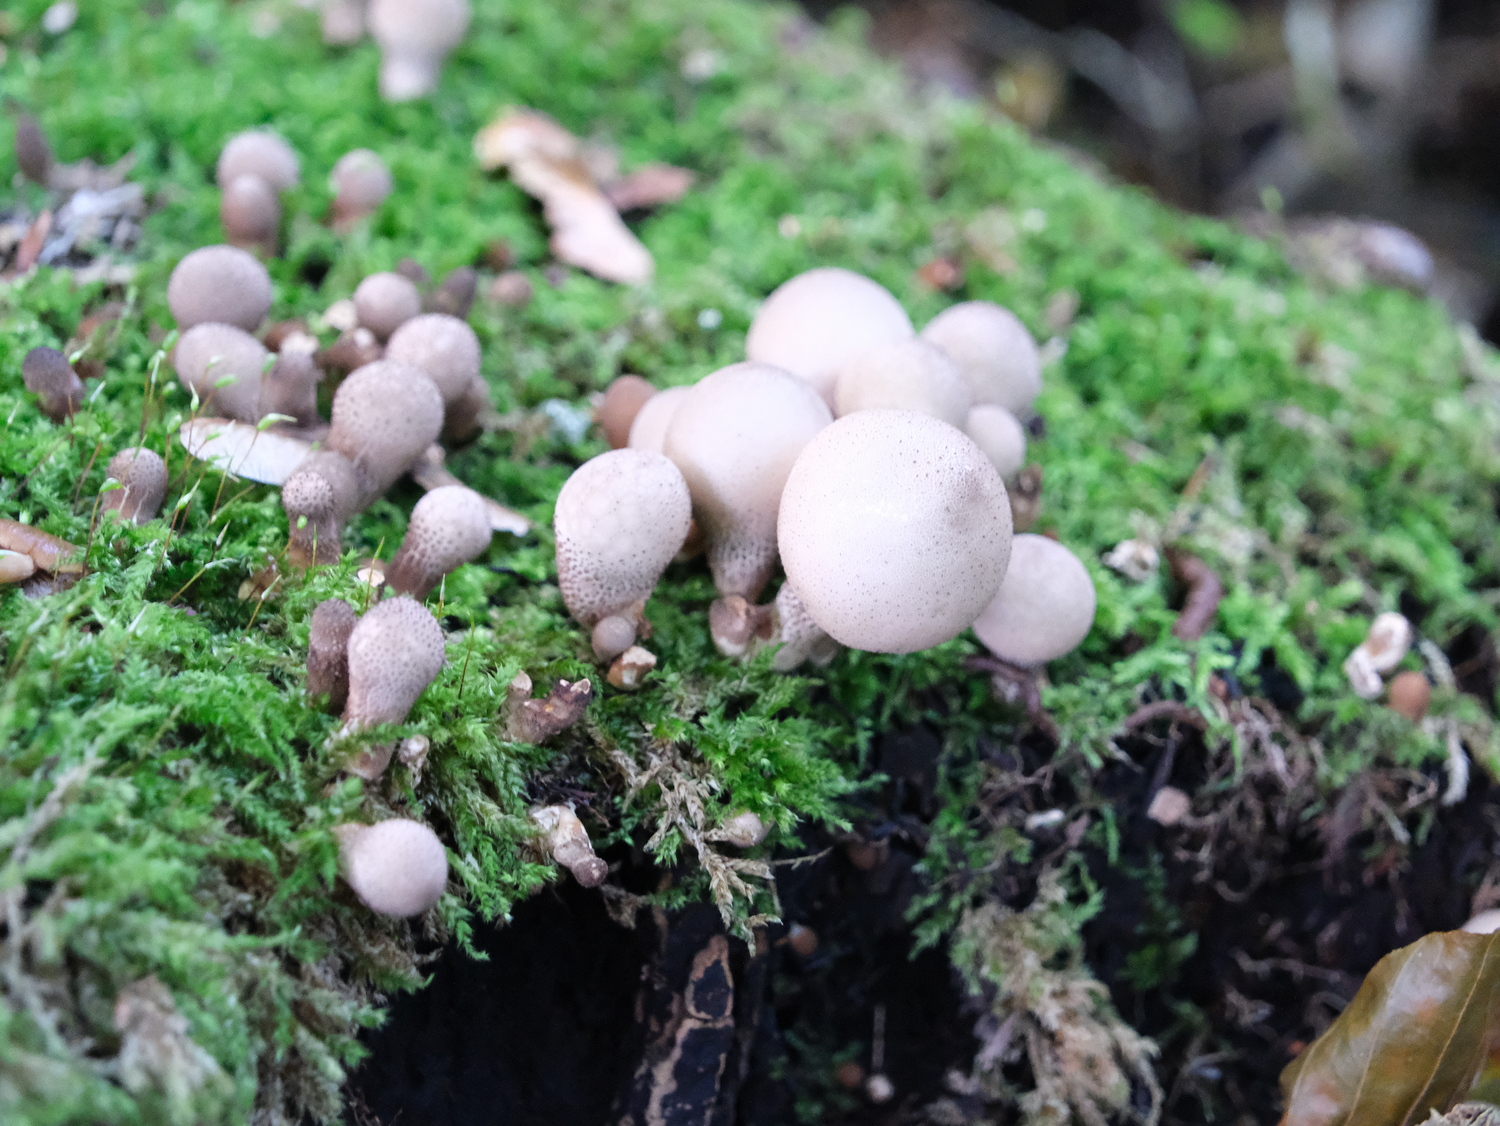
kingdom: Fungi
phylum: Basidiomycota
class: Agaricomycetes
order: Agaricales
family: Lycoperdaceae
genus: Apioperdon
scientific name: Apioperdon pyriforme
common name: pære-støvbold
